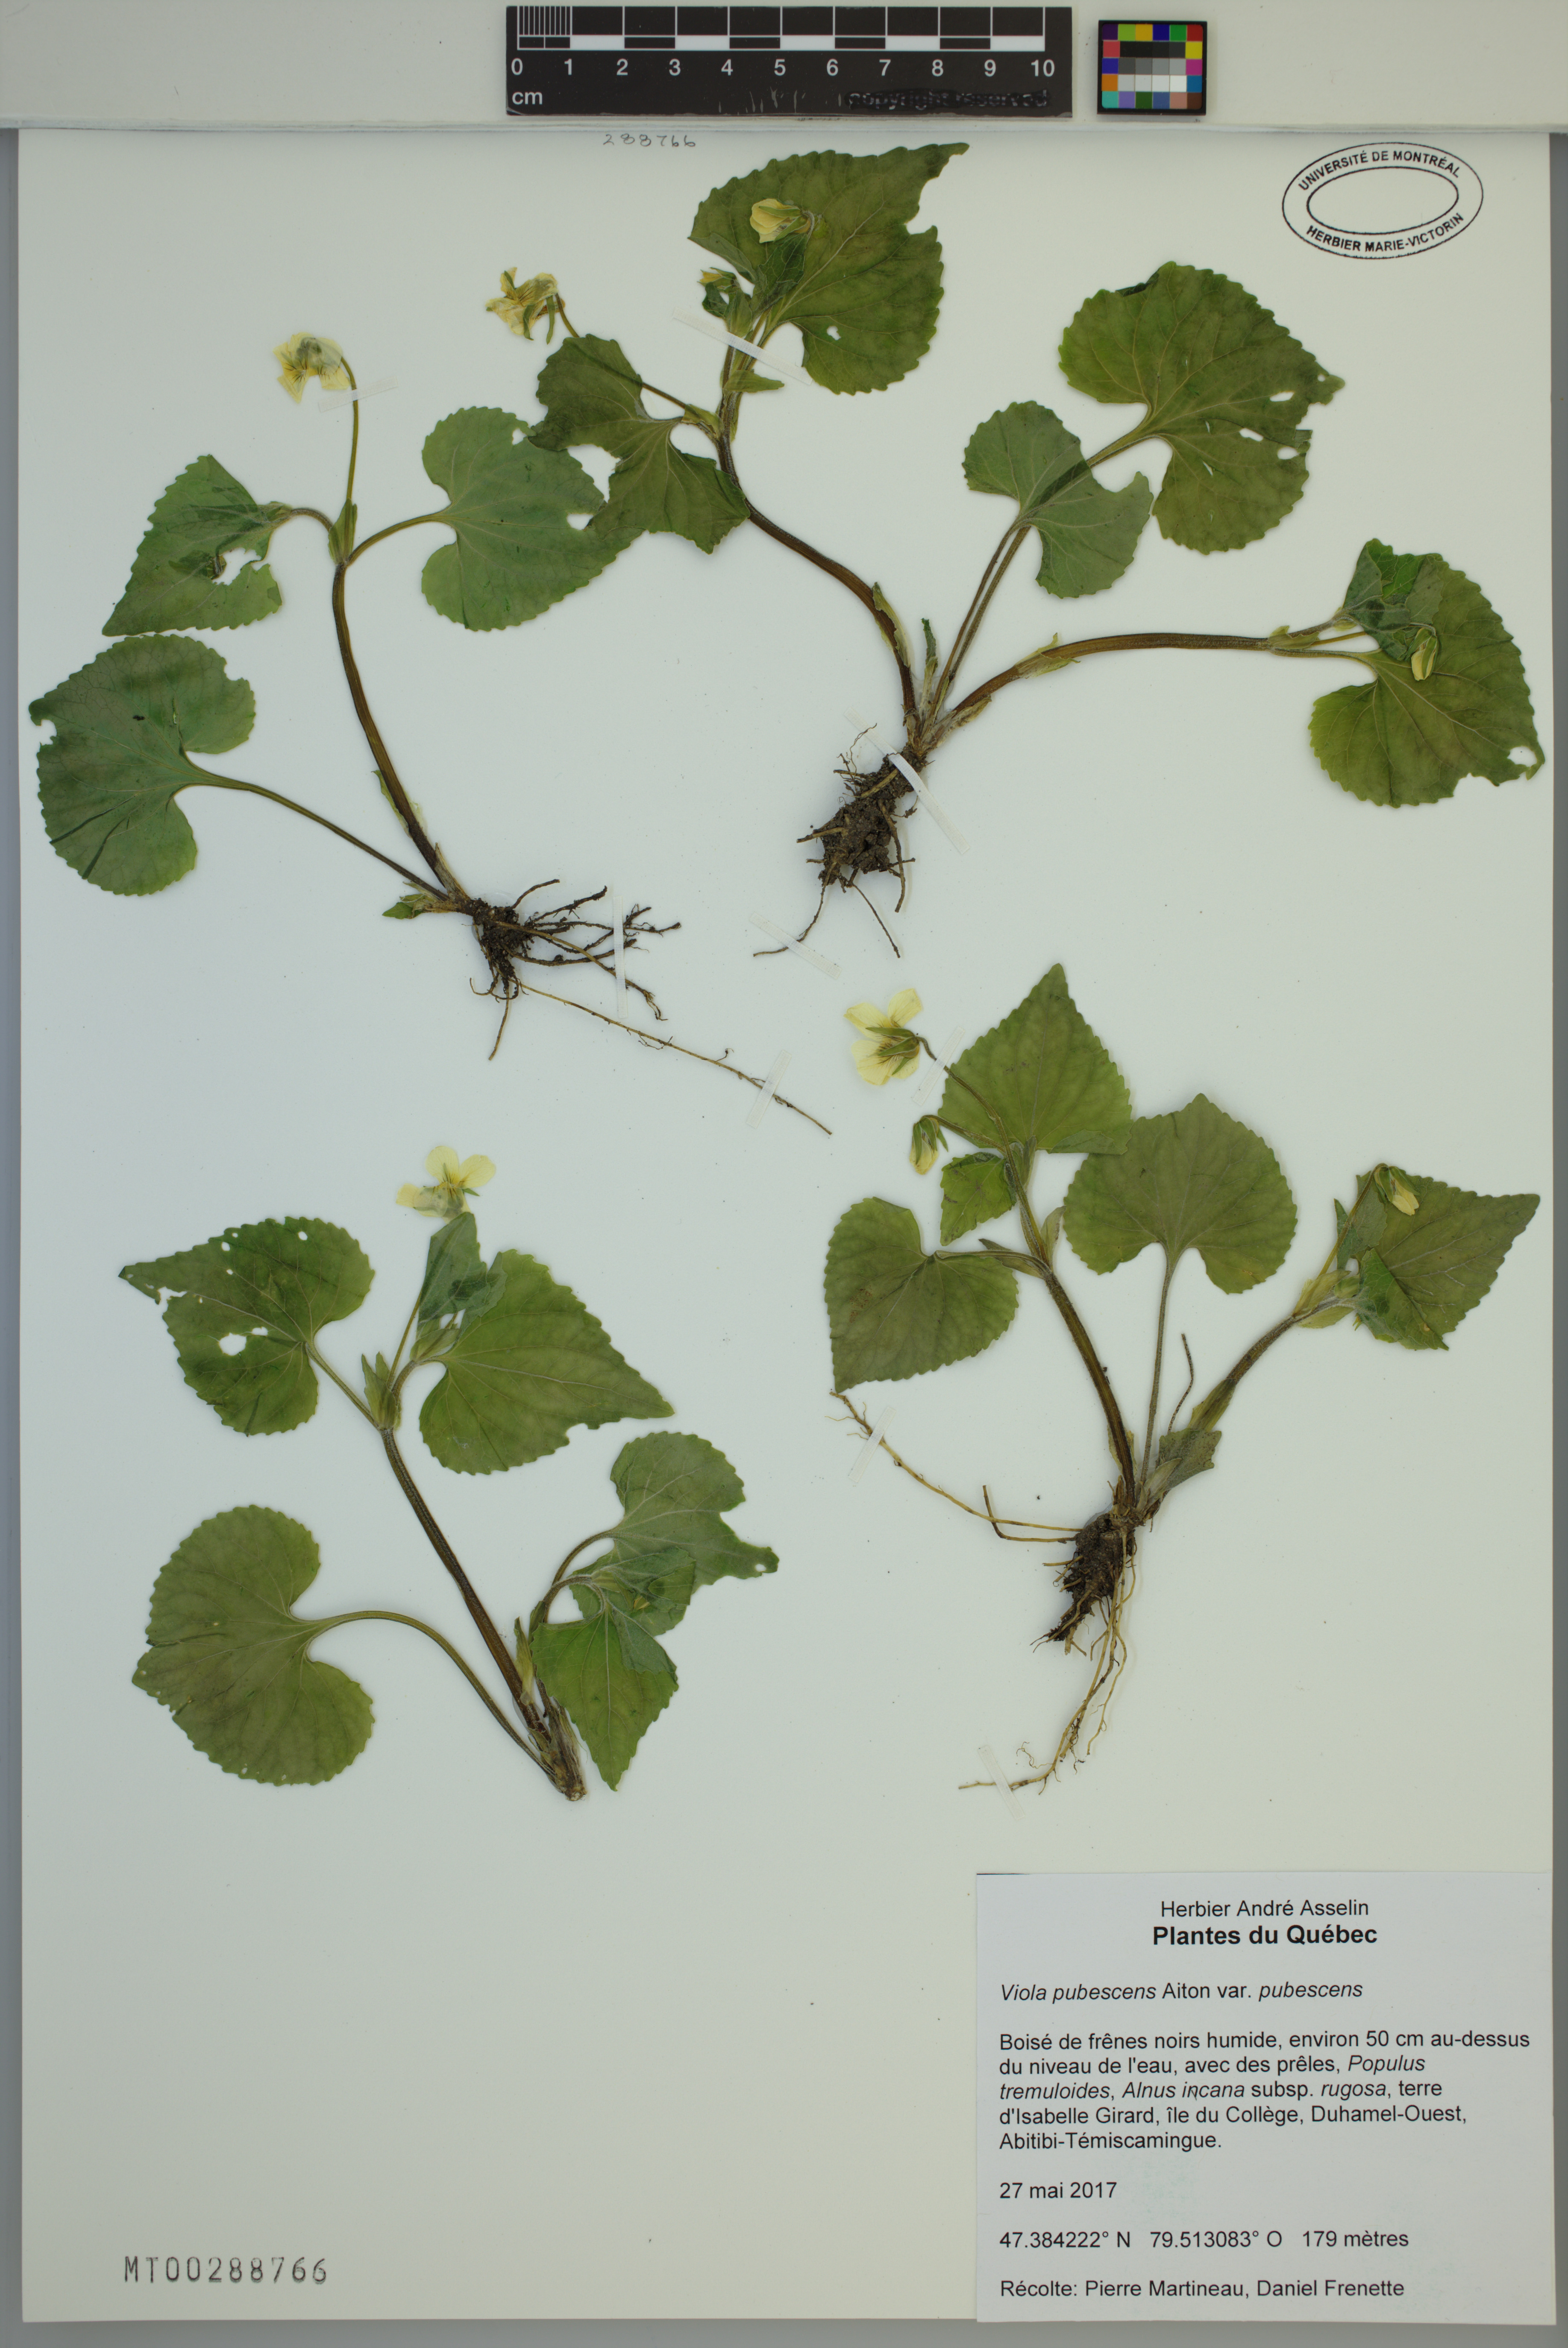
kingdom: Plantae
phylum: Tracheophyta
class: Magnoliopsida
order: Malpighiales
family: Violaceae
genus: Viola
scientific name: Viola pubescens
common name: Yellow forest violet
